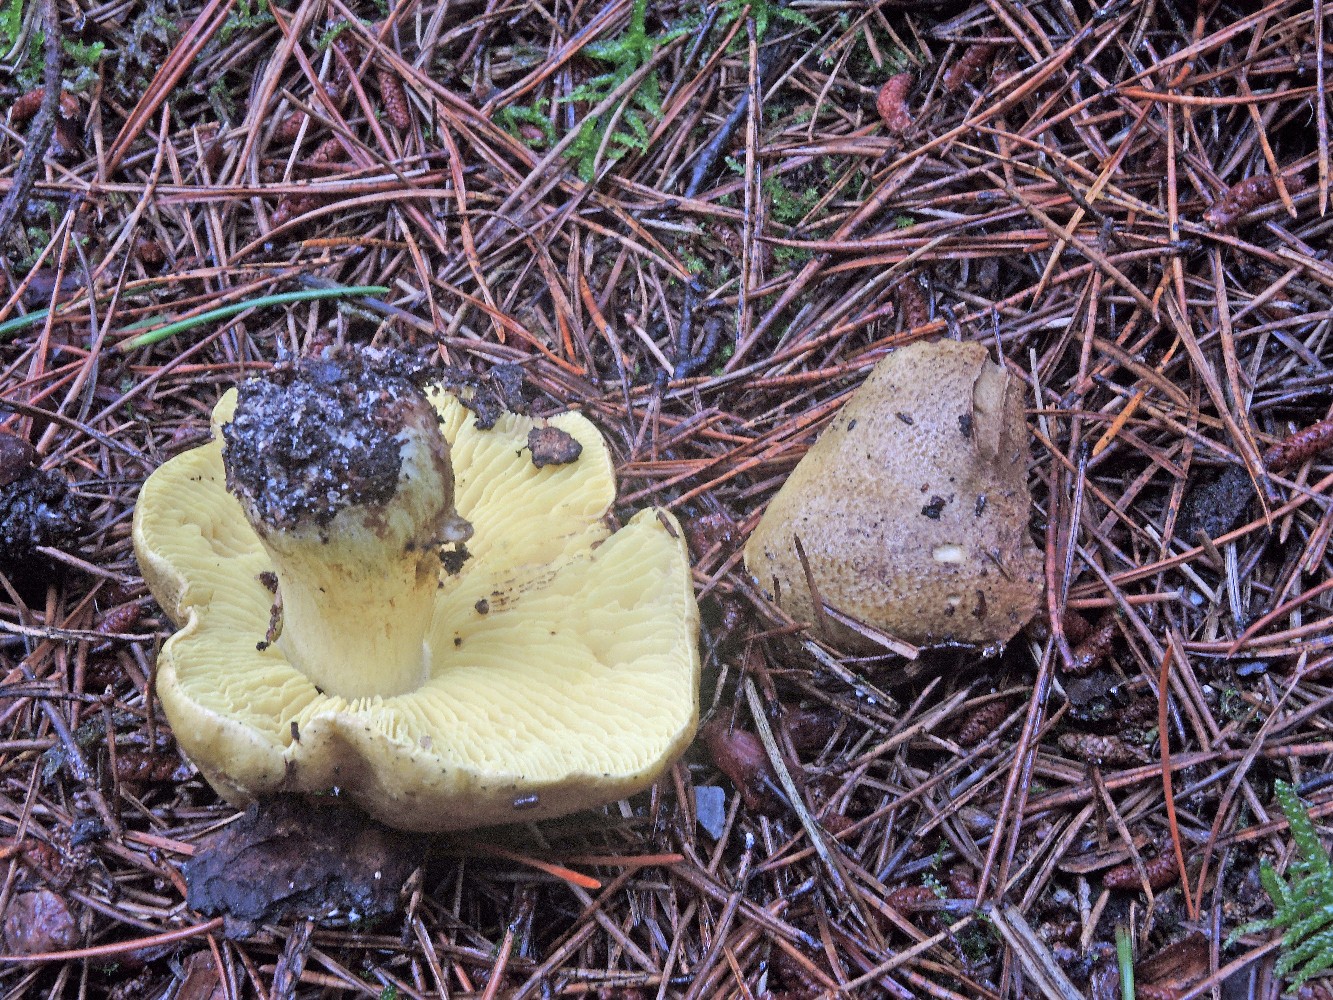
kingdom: Fungi
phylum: Basidiomycota
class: Agaricomycetes
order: Agaricales
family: Tricholomataceae
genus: Tricholoma
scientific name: Tricholoma equestre
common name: ægte ridderhat
